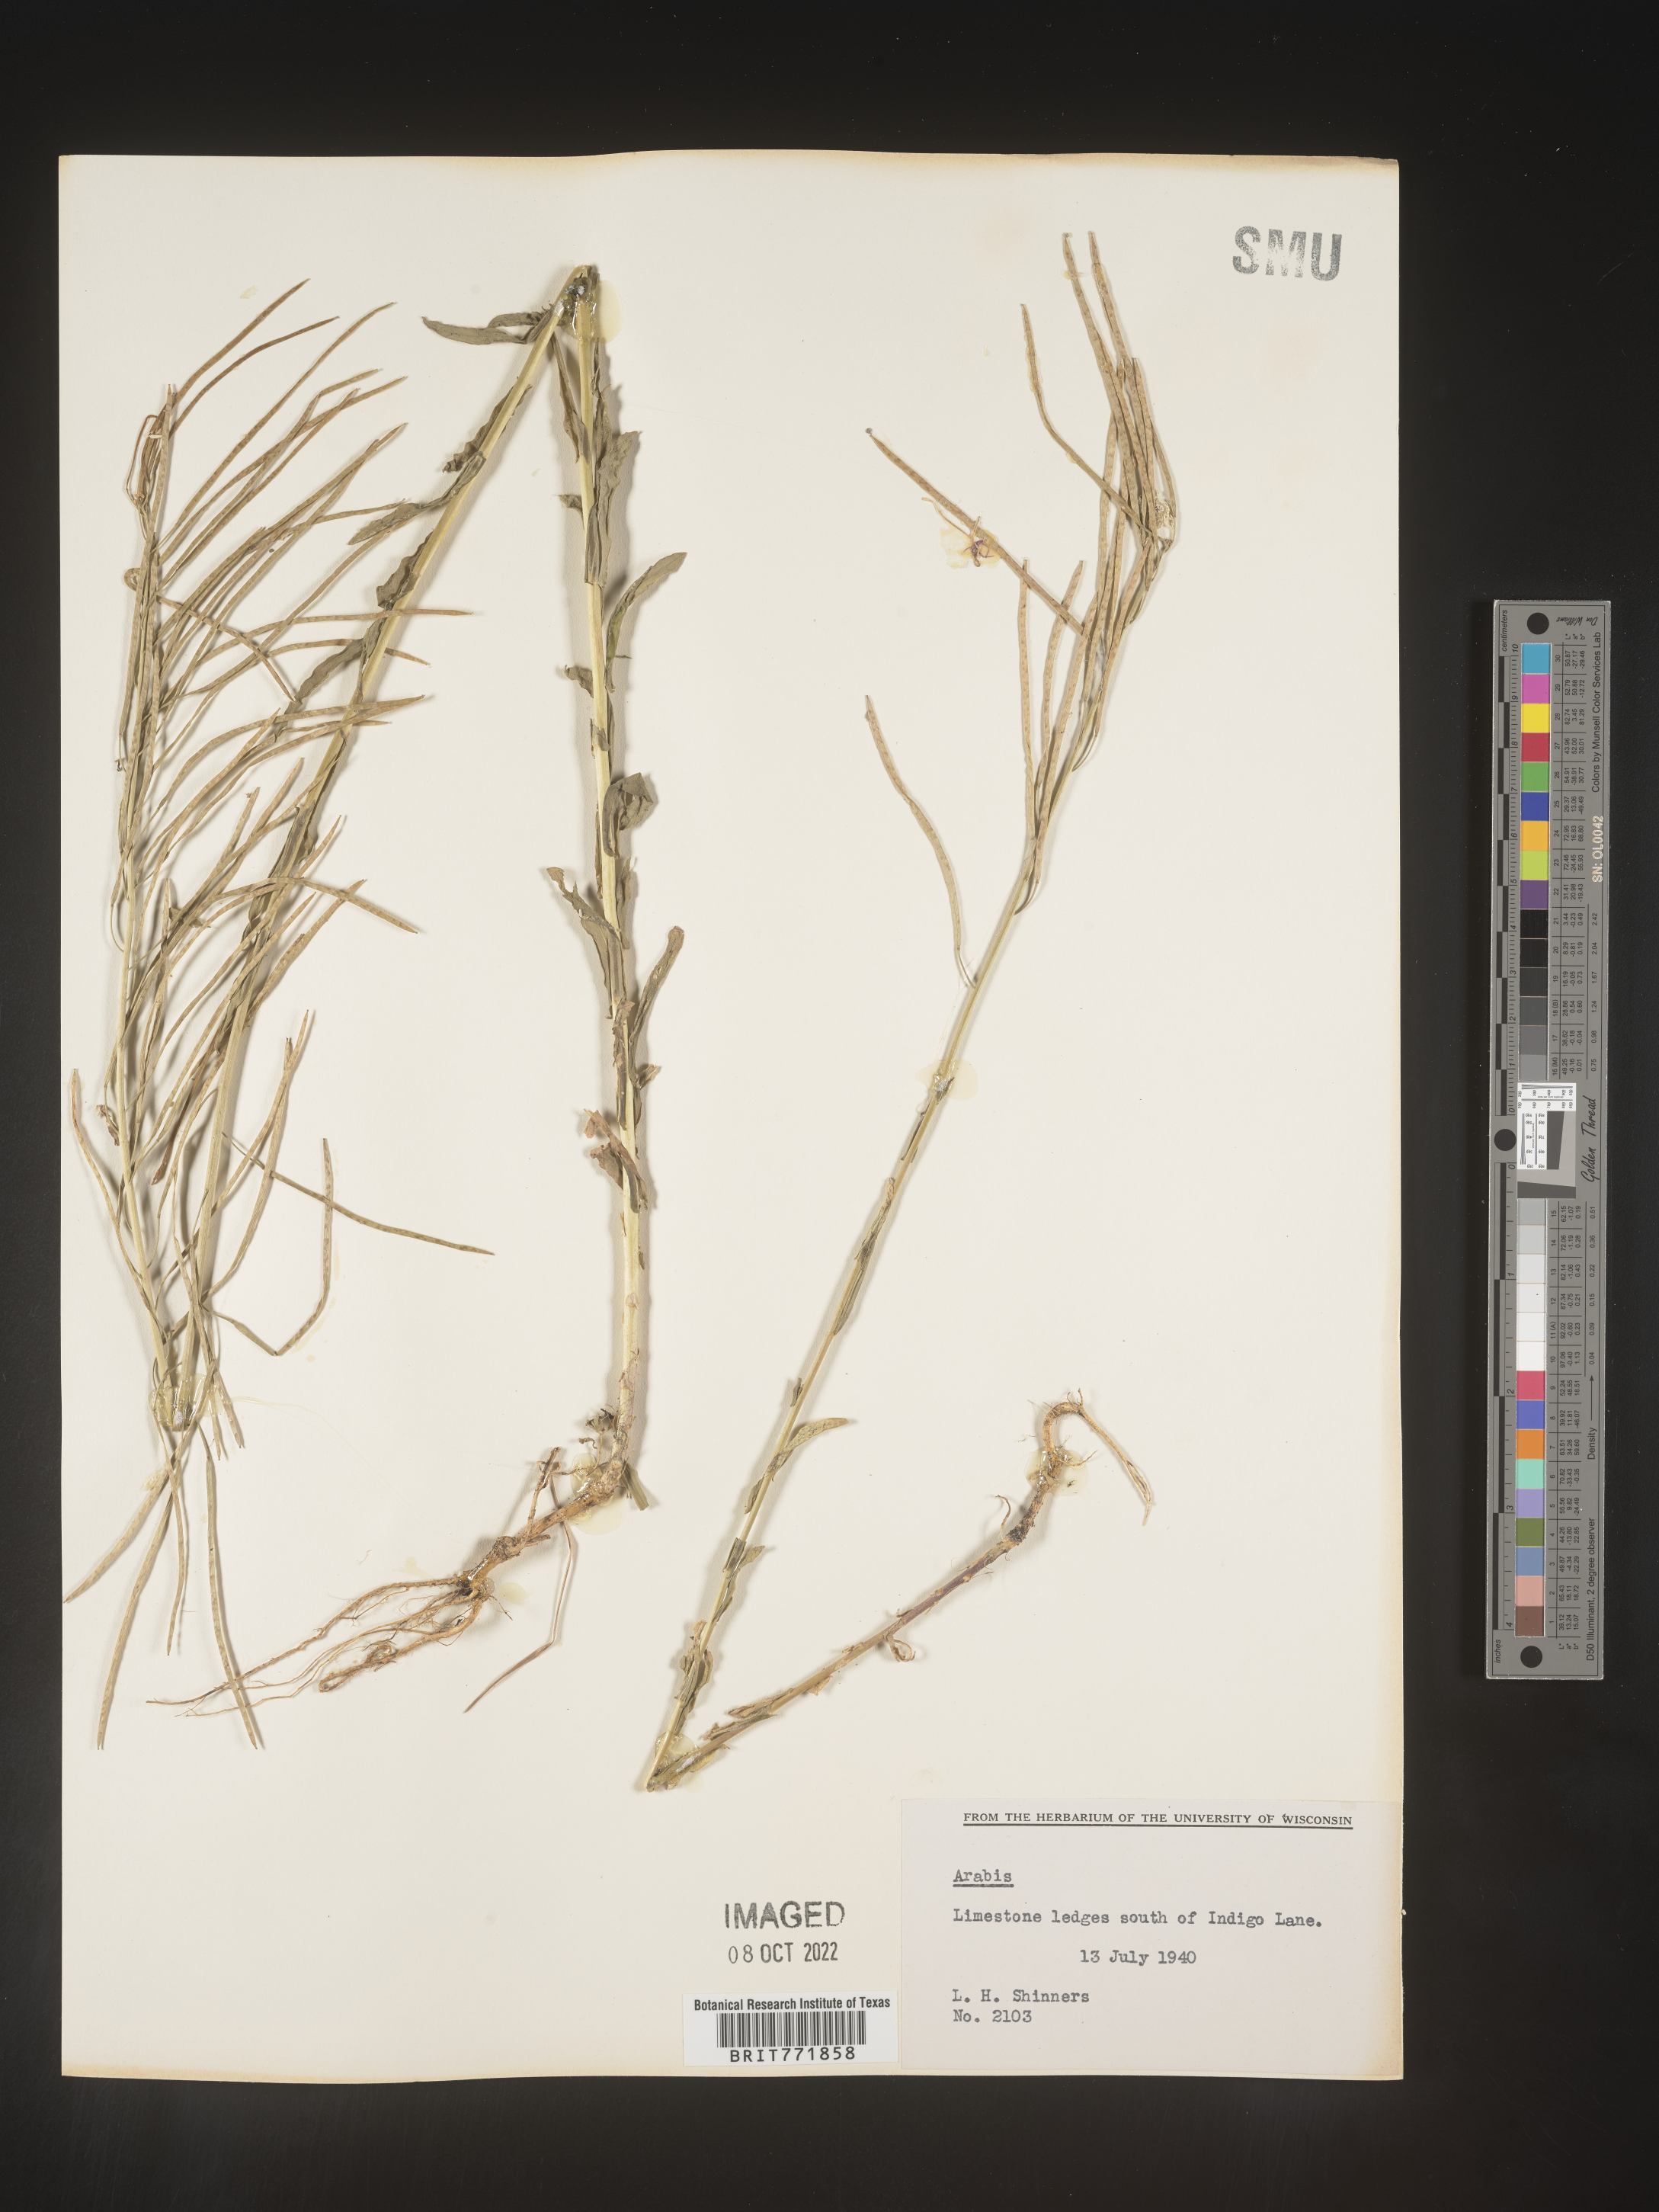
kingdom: Plantae
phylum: Tracheophyta
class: Magnoliopsida
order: Brassicales
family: Brassicaceae
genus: Arabis
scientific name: Arabis
